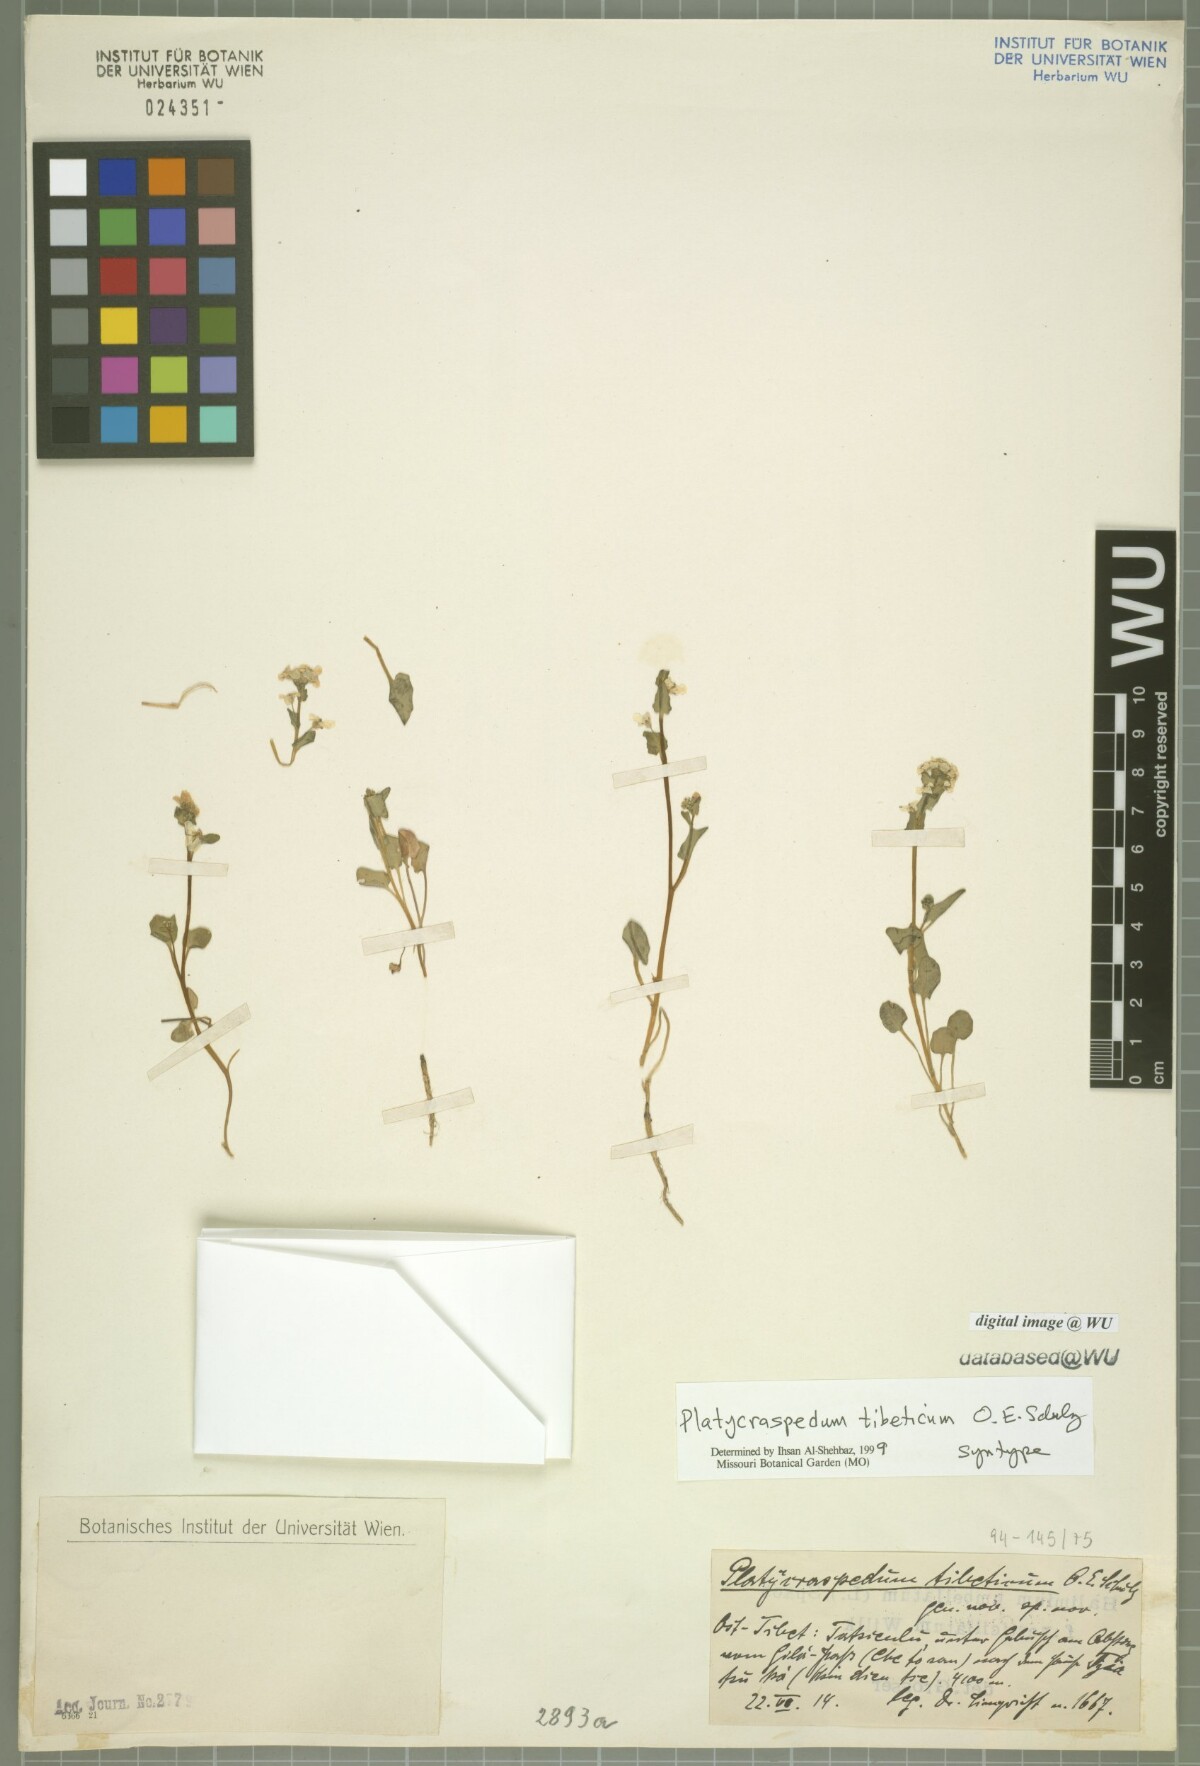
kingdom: Plantae
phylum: Tracheophyta
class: Magnoliopsida
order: Brassicales
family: Brassicaceae
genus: Eutrema
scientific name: Eutrema schulzii
